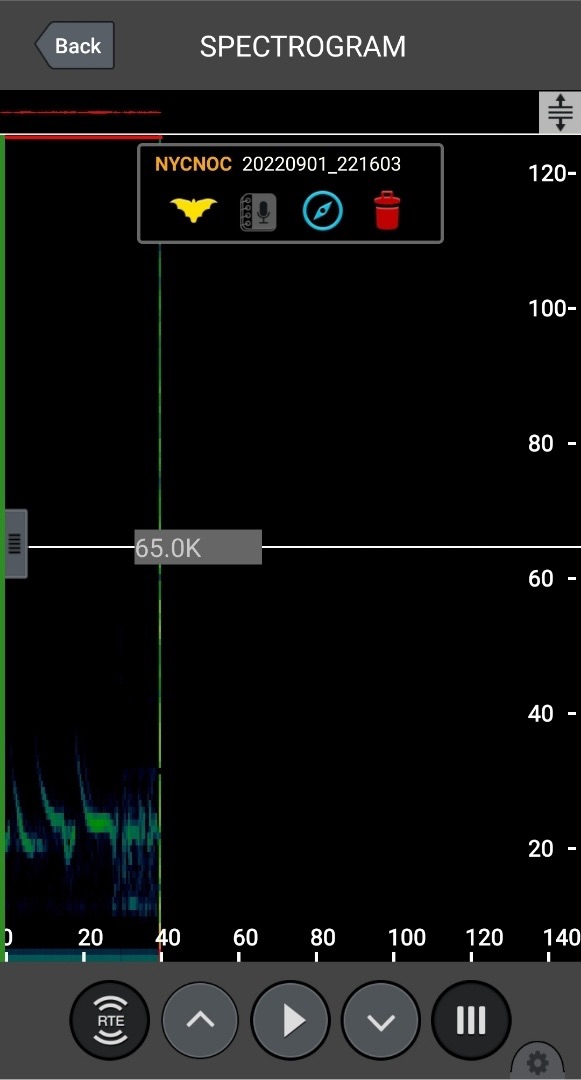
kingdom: Animalia
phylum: Chordata
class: Mammalia
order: Chiroptera
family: Vespertilionidae
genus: Nyctalus
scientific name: Nyctalus noctula
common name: Brunflagermus
